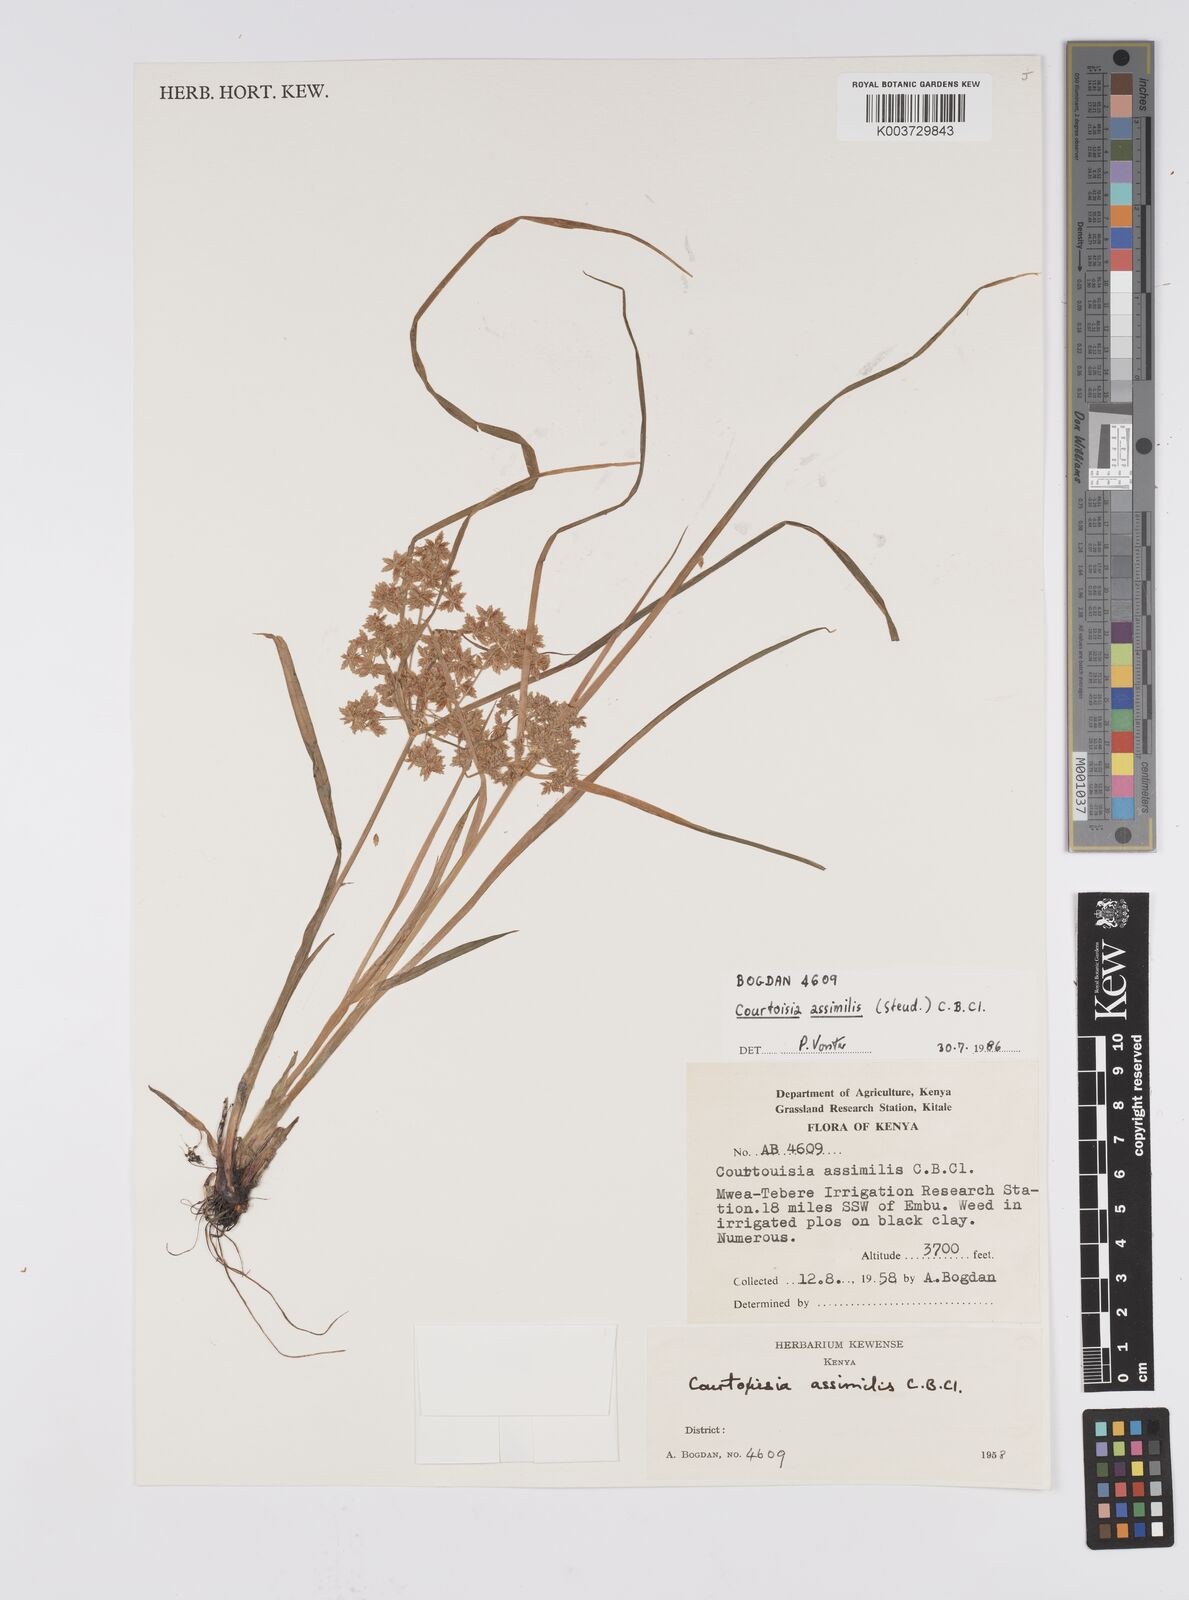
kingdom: Plantae
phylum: Tracheophyta
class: Liliopsida
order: Poales
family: Cyperaceae
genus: Cyperus
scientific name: Cyperus assimilis
